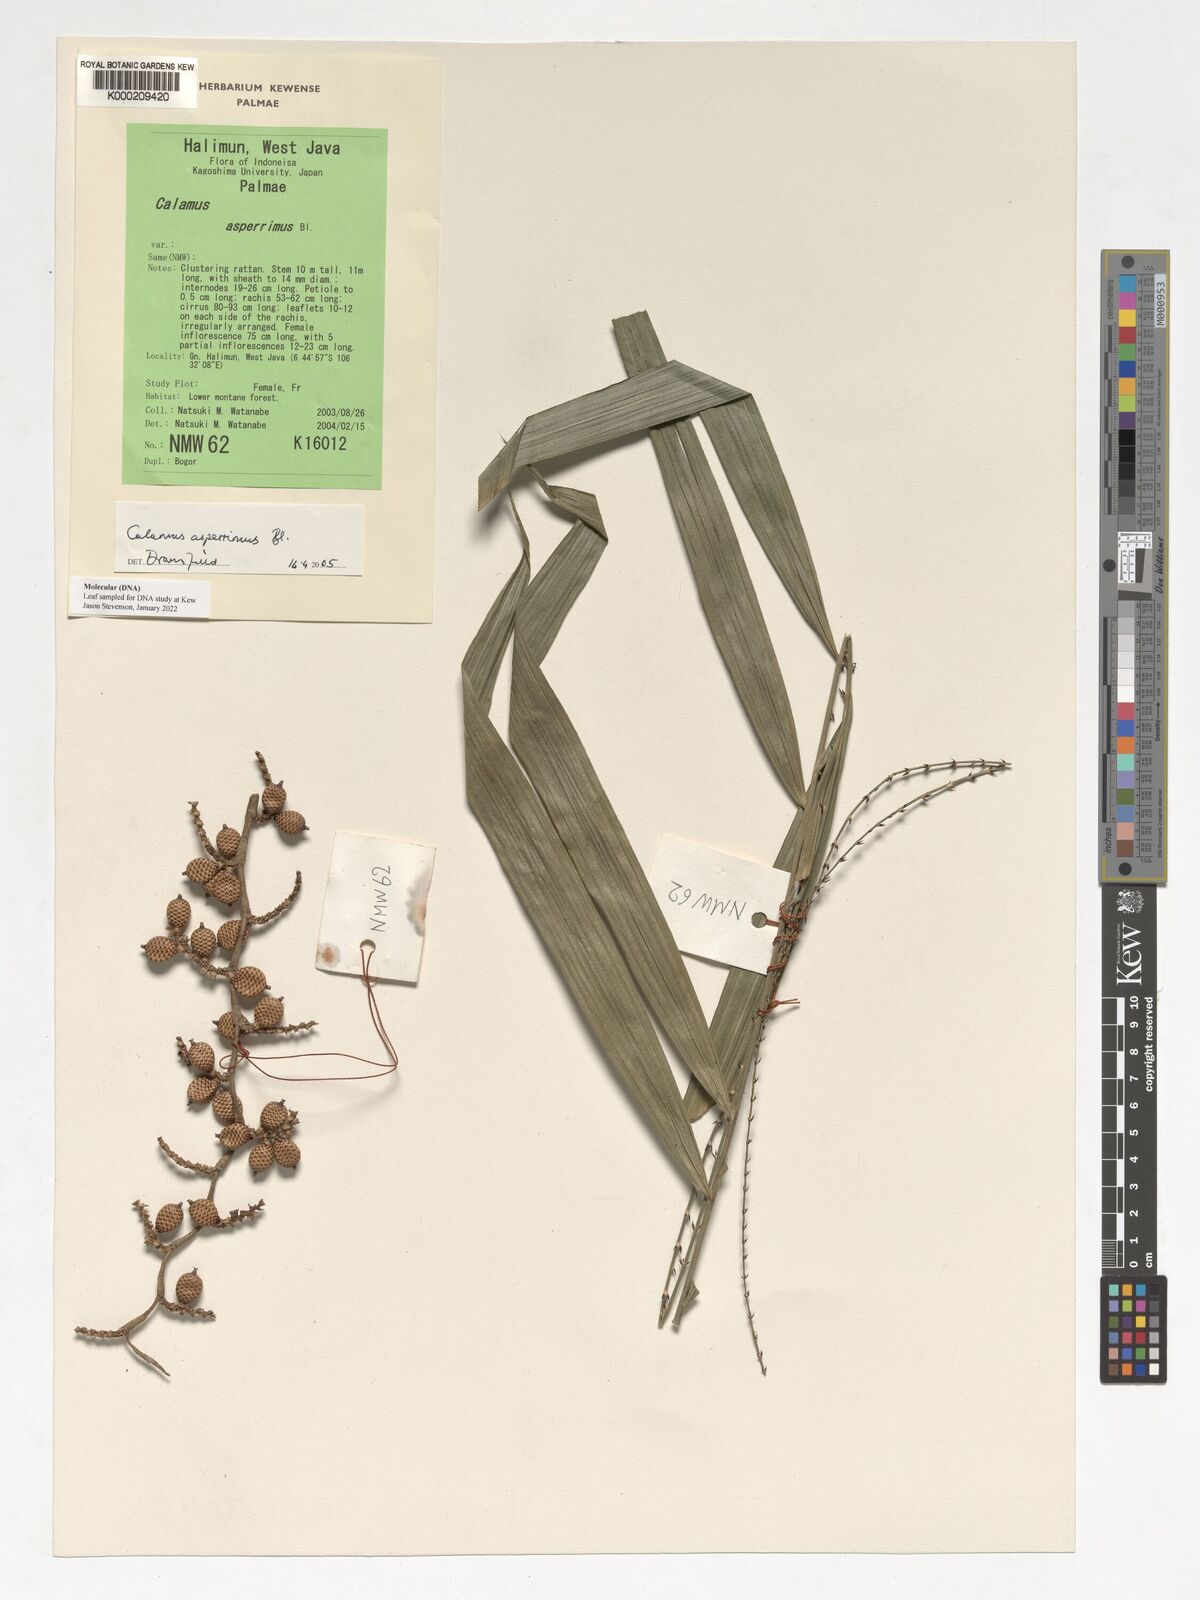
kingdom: Plantae
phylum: Tracheophyta
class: Liliopsida
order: Arecales
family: Arecaceae
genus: Calamus
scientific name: Calamus asperrimus
